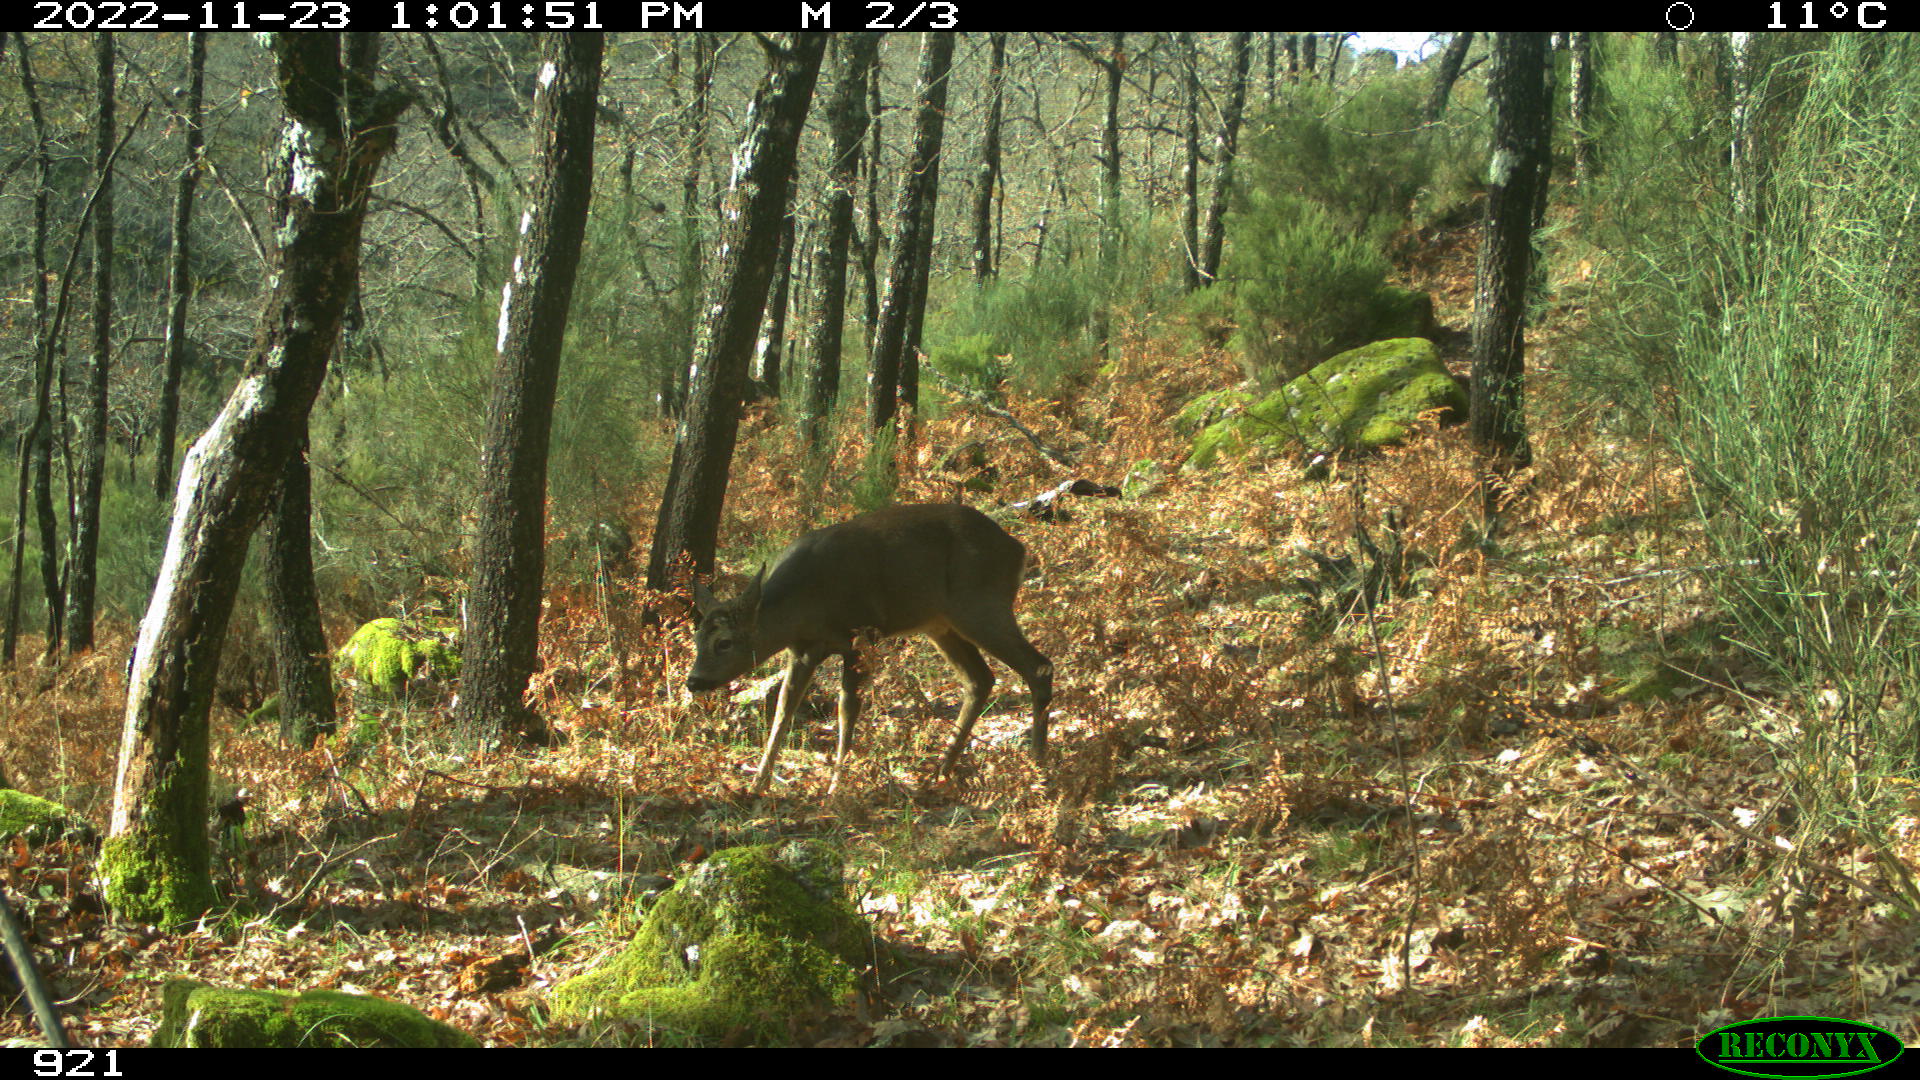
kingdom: Animalia
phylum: Chordata
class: Mammalia
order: Artiodactyla
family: Cervidae
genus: Capreolus
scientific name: Capreolus capreolus
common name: Western roe deer
